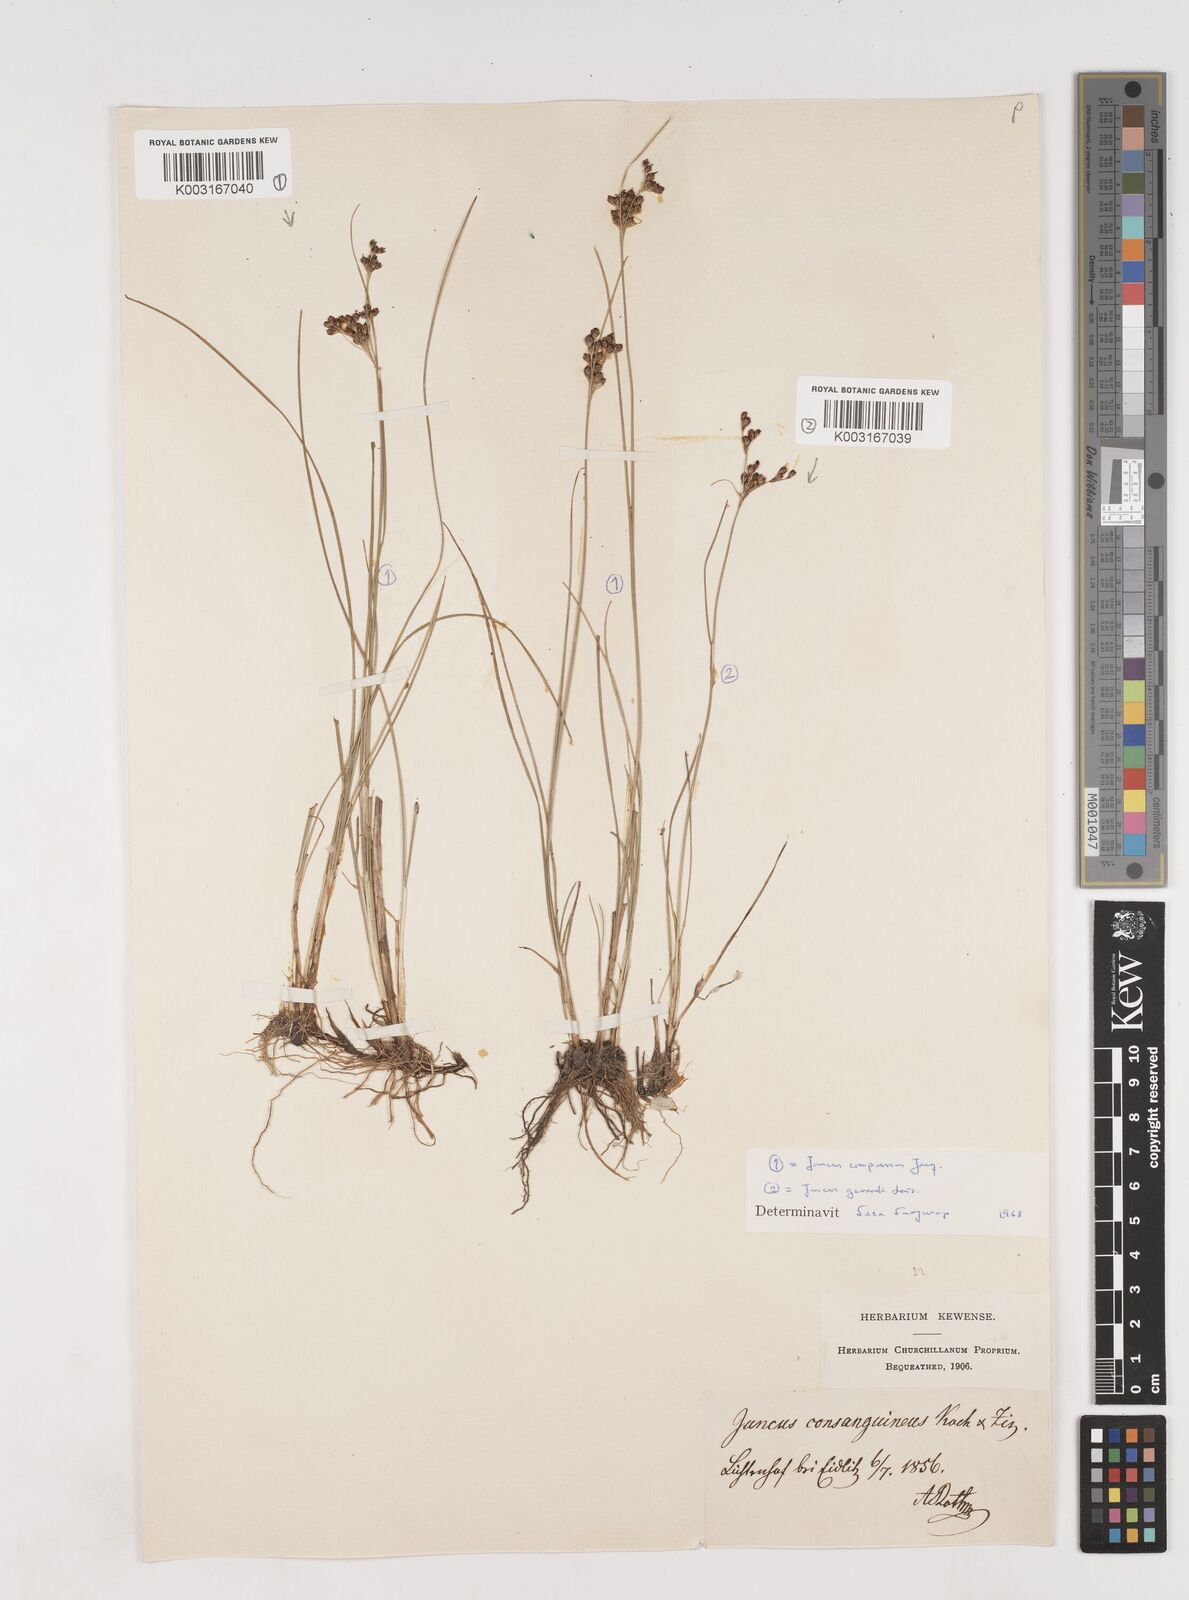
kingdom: Plantae
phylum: Tracheophyta
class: Liliopsida
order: Poales
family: Juncaceae
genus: Juncus
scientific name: Juncus gerardi
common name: Saltmarsh rush
